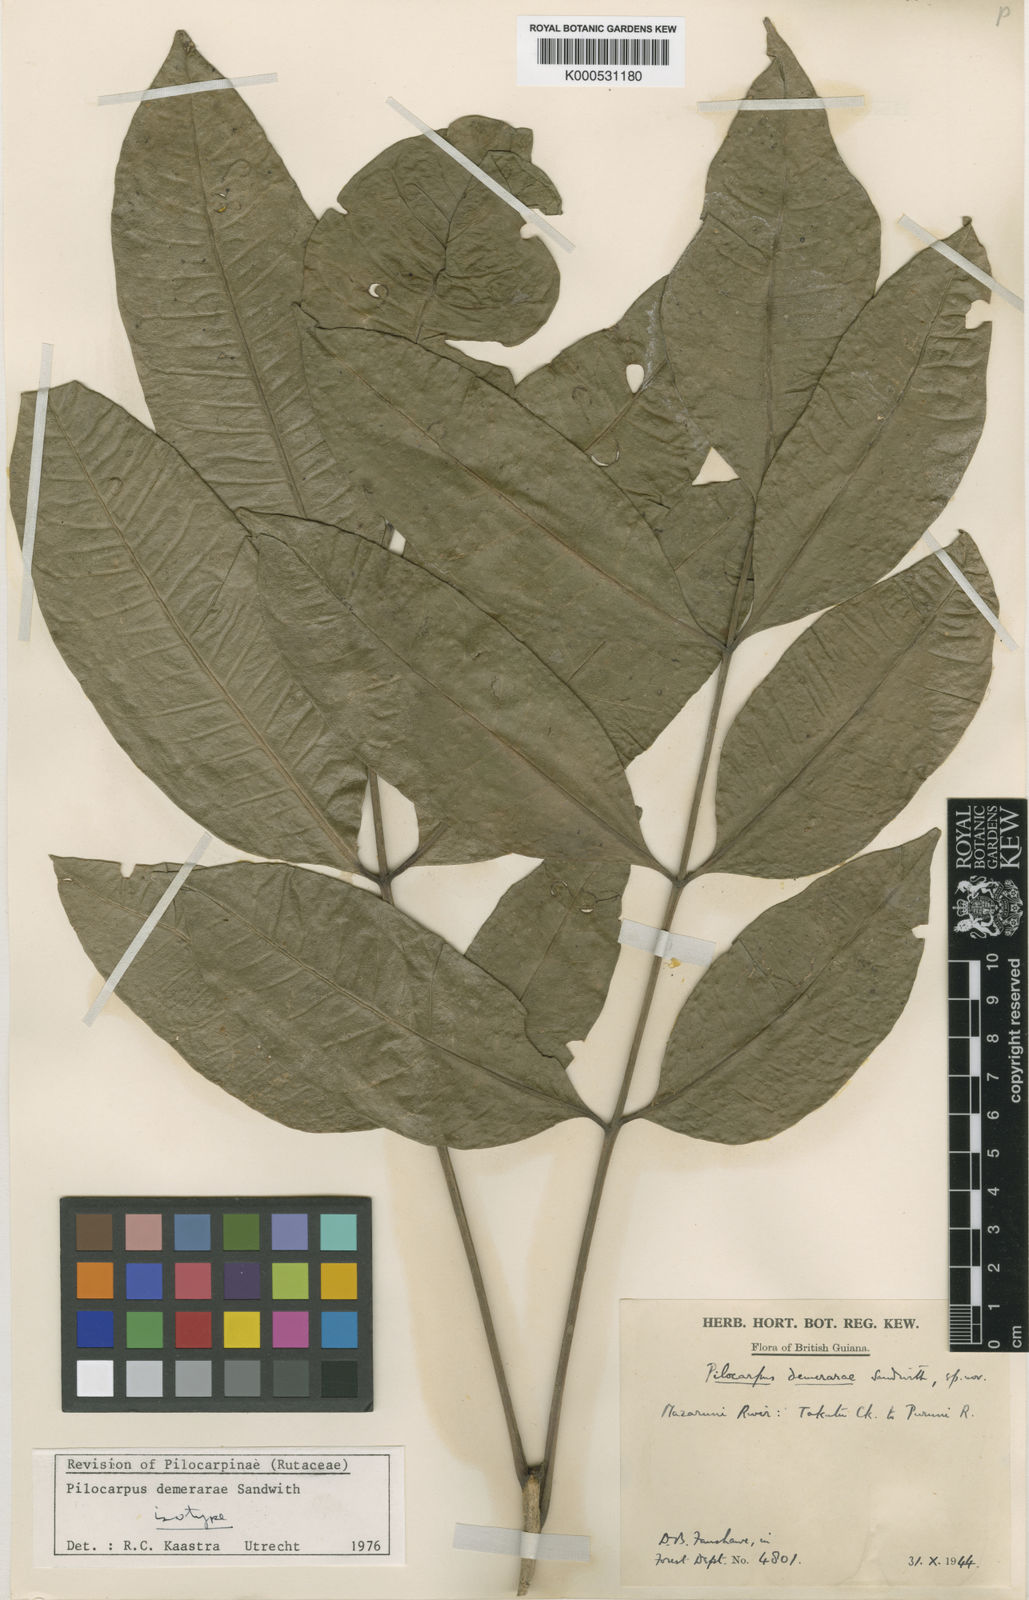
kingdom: Plantae
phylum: Tracheophyta
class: Magnoliopsida
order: Sapindales
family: Rutaceae
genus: Pilocarpus
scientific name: Pilocarpus demerarae
